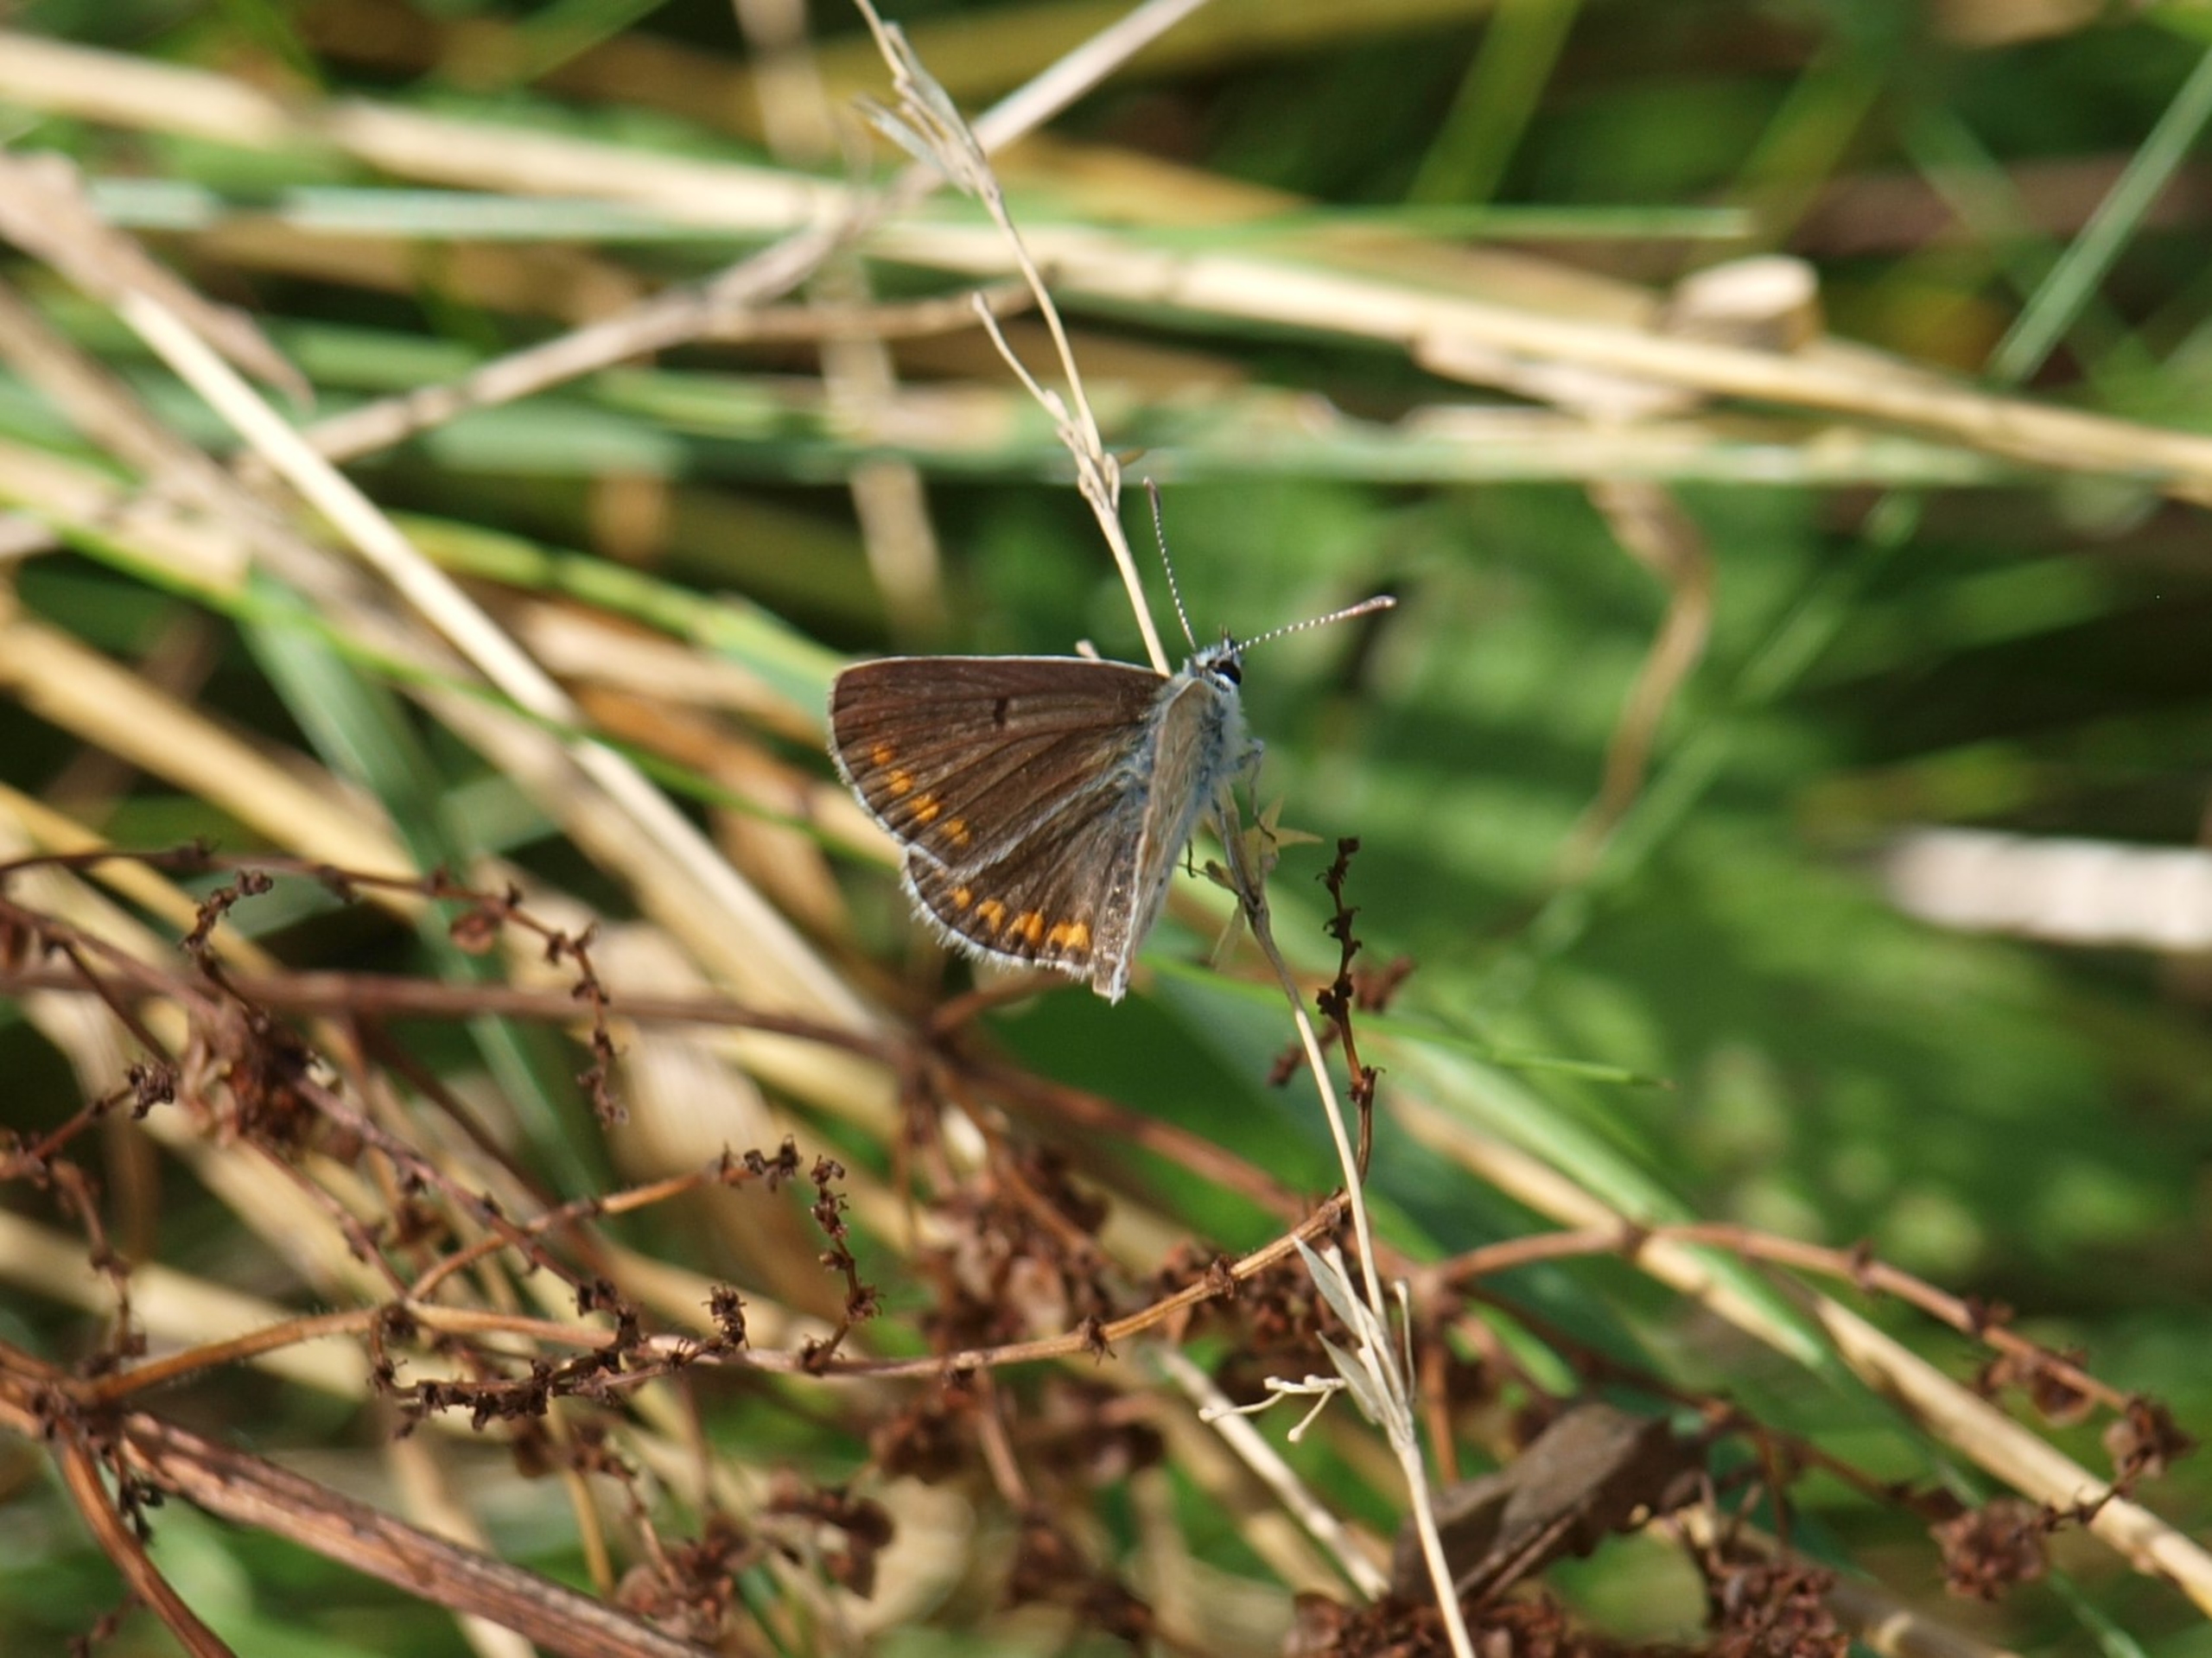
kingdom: Animalia
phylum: Arthropoda
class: Insecta
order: Lepidoptera
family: Lycaenidae
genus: Aricia
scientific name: Aricia agestis
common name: Rødplettet blåfugl
